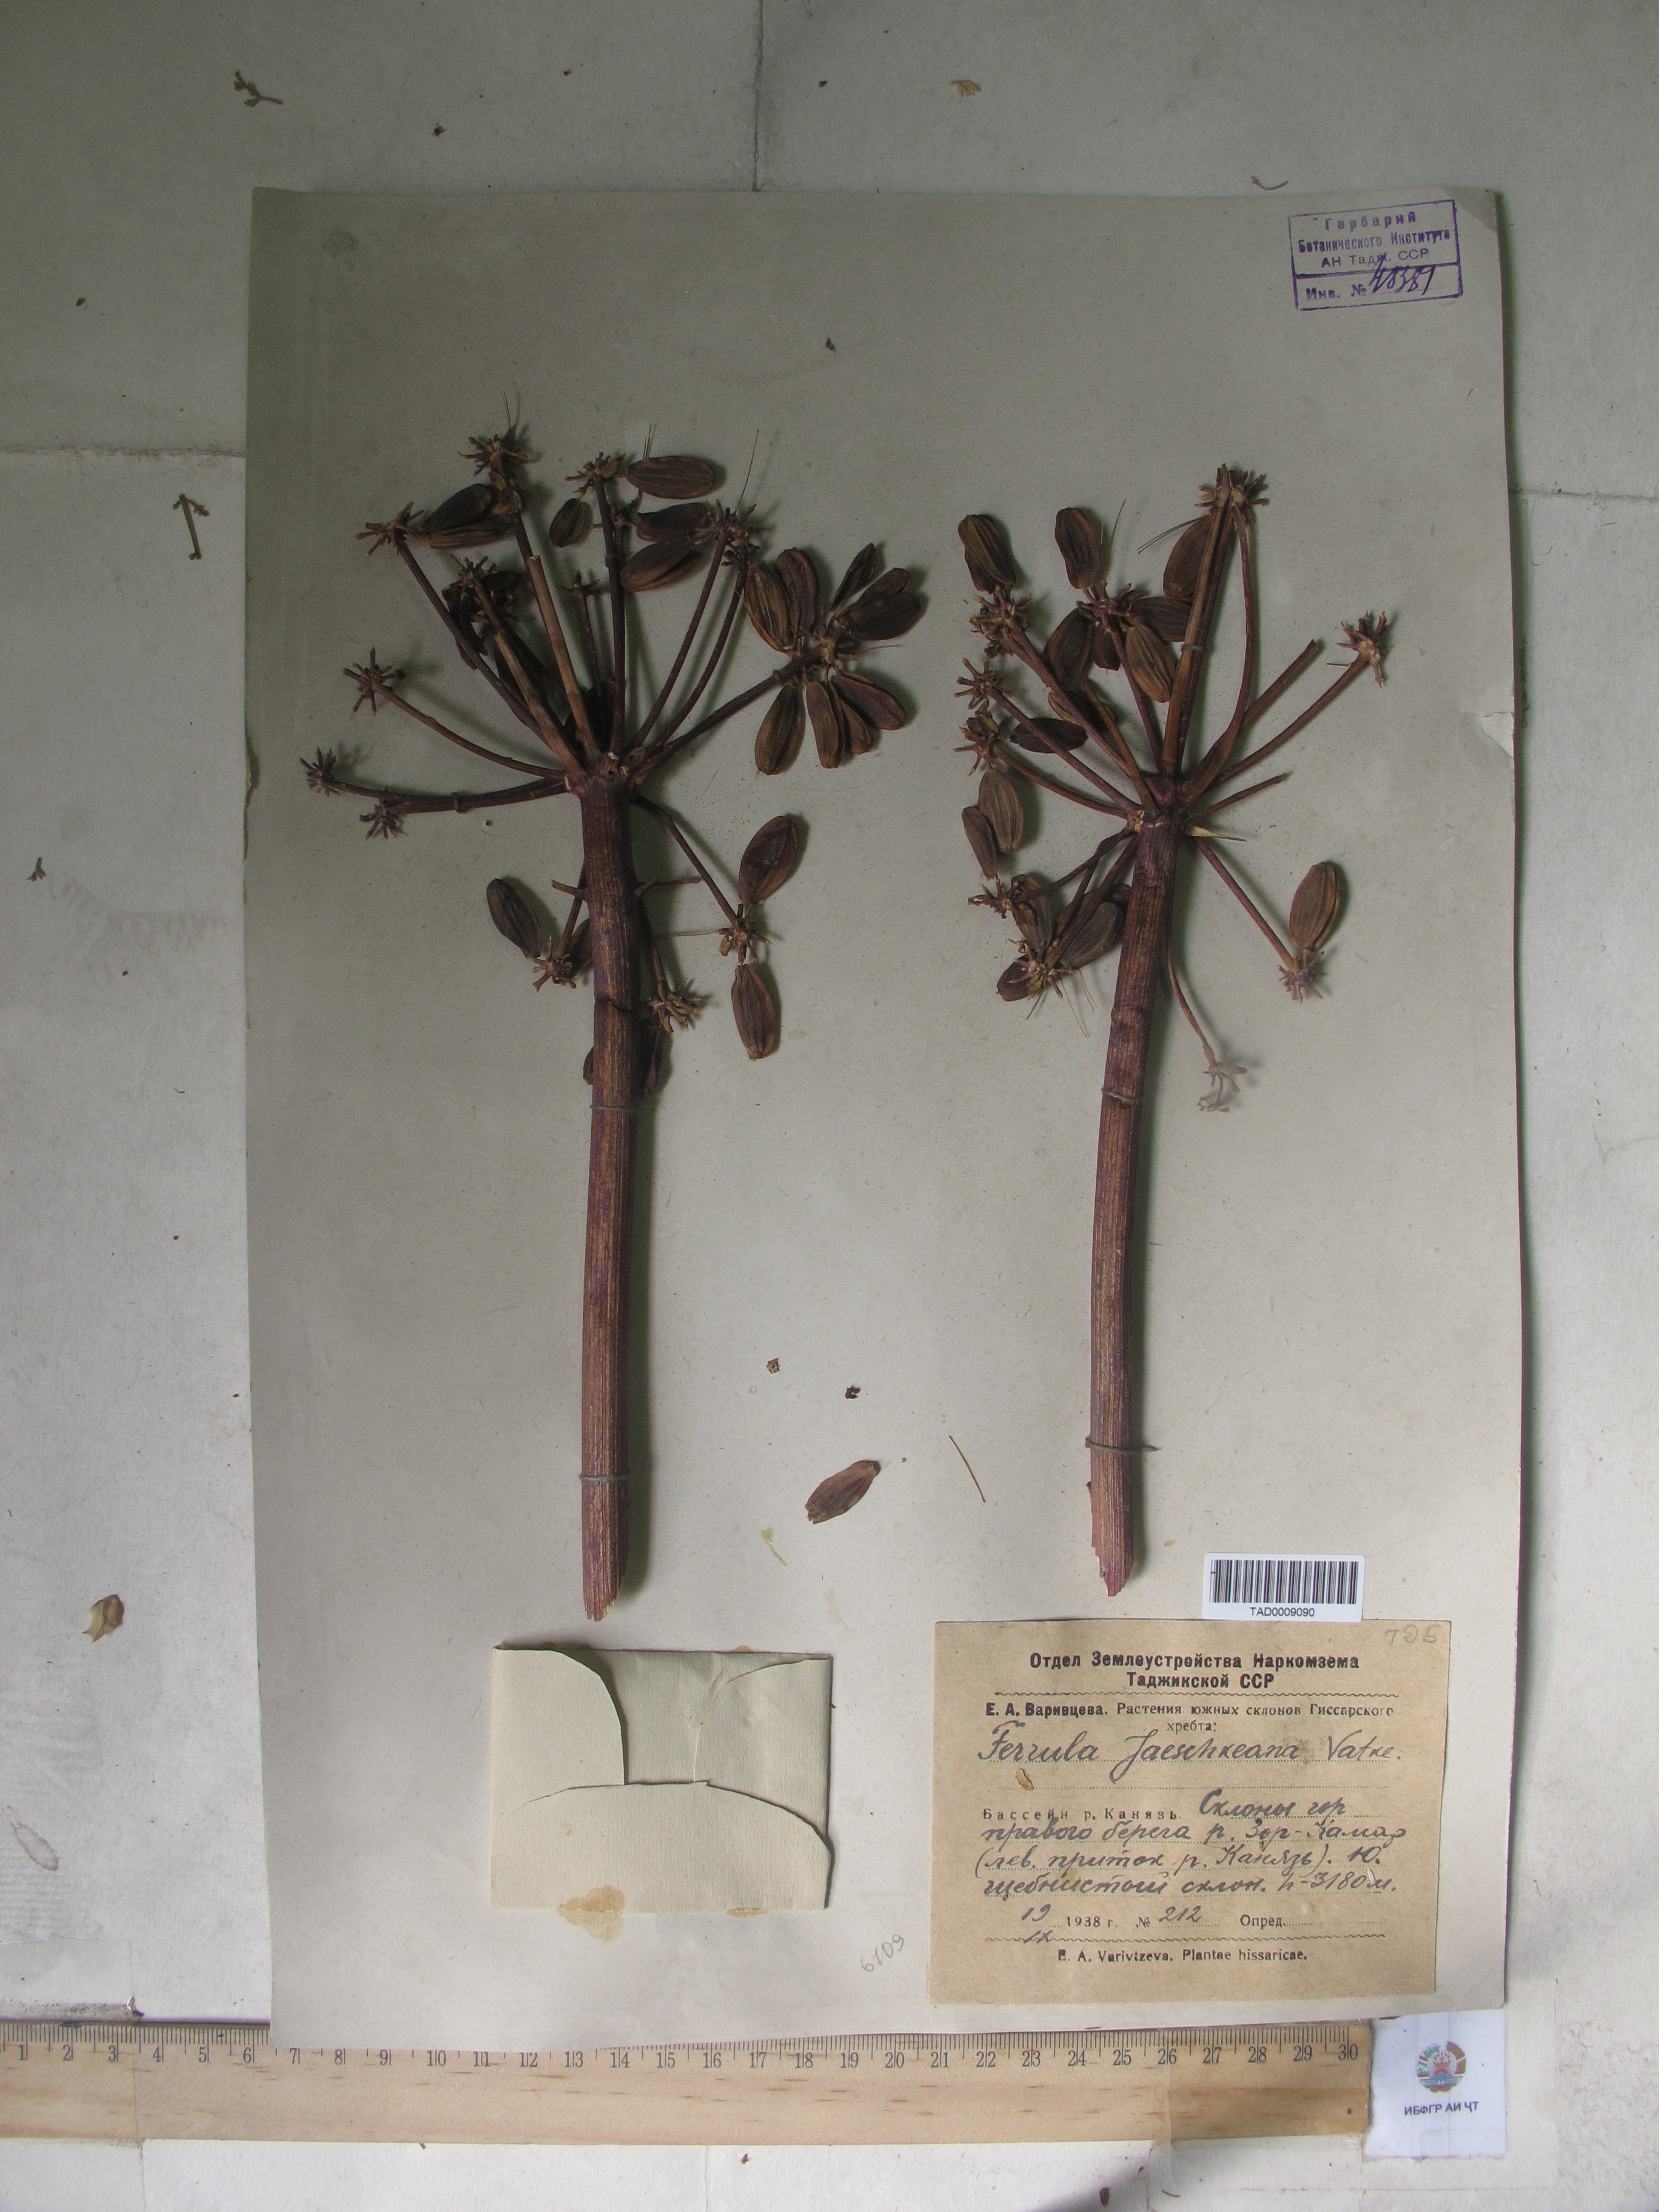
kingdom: Plantae
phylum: Tracheophyta
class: Magnoliopsida
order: Apiales
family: Apiaceae
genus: Ferula
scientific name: Ferula jaeschkeana
